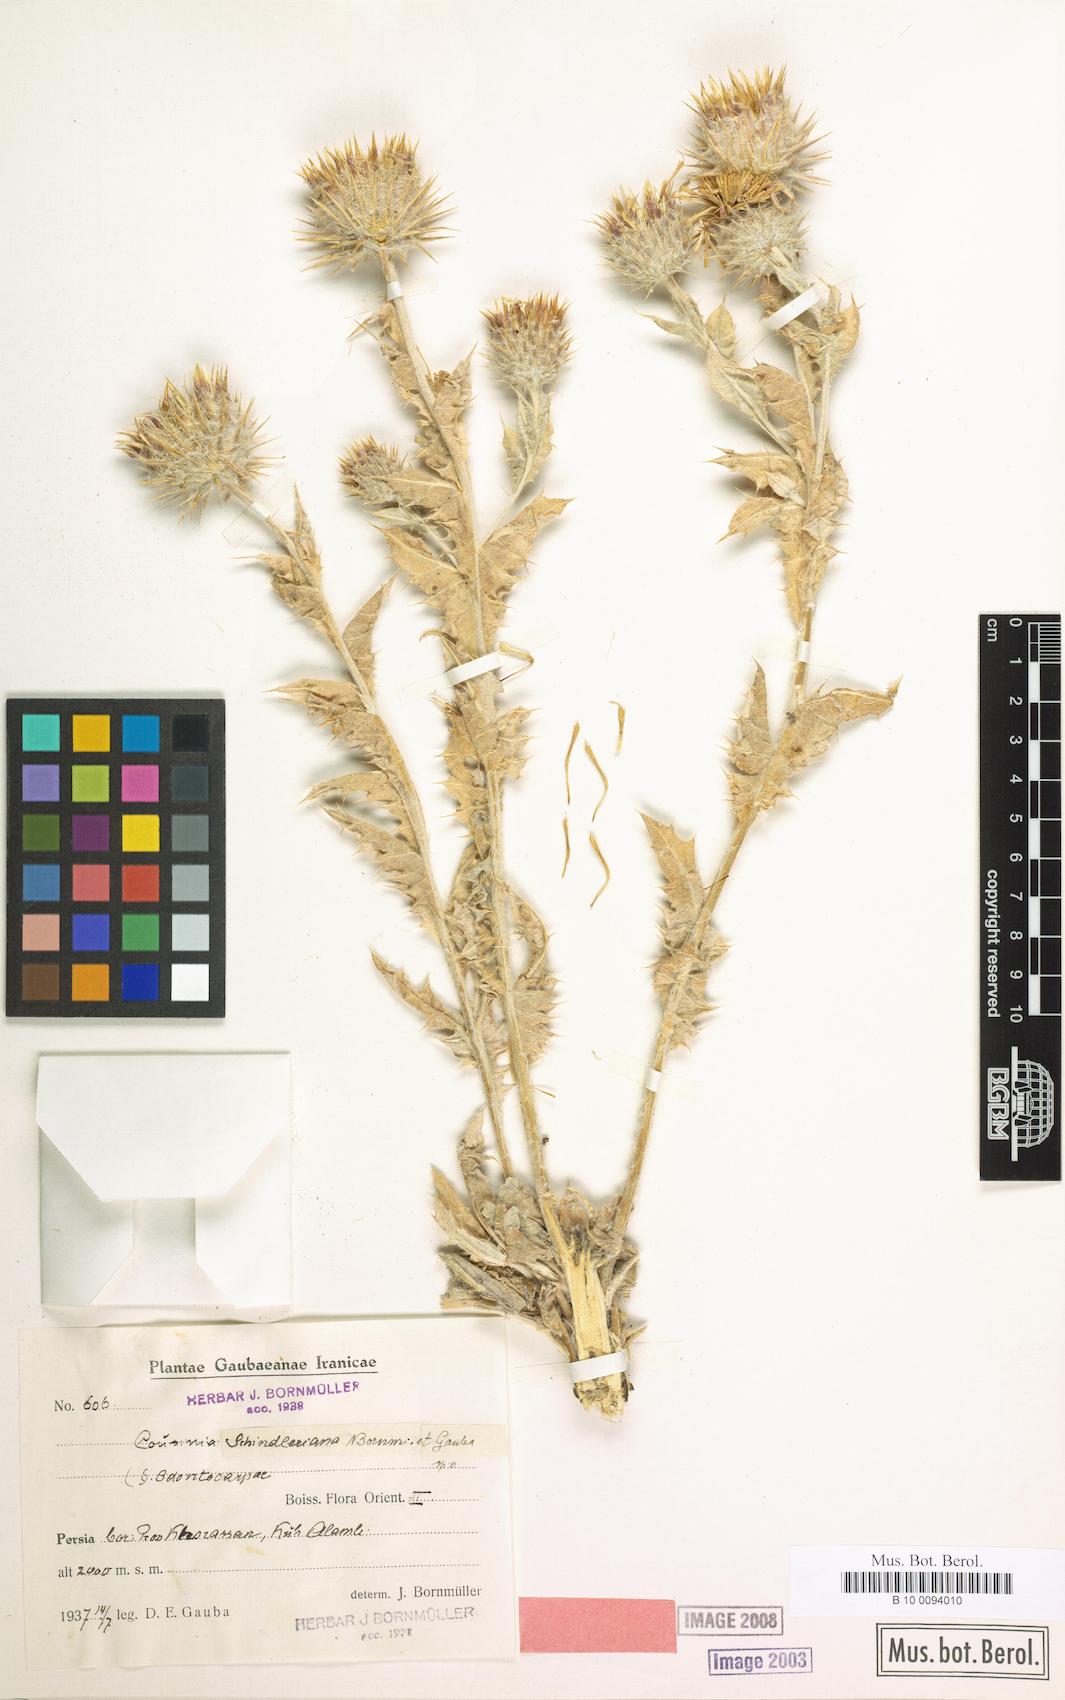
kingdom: Plantae
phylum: Tracheophyta
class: Magnoliopsida
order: Asterales
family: Asteraceae
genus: Cousinia
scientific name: Cousinia schindleriana
